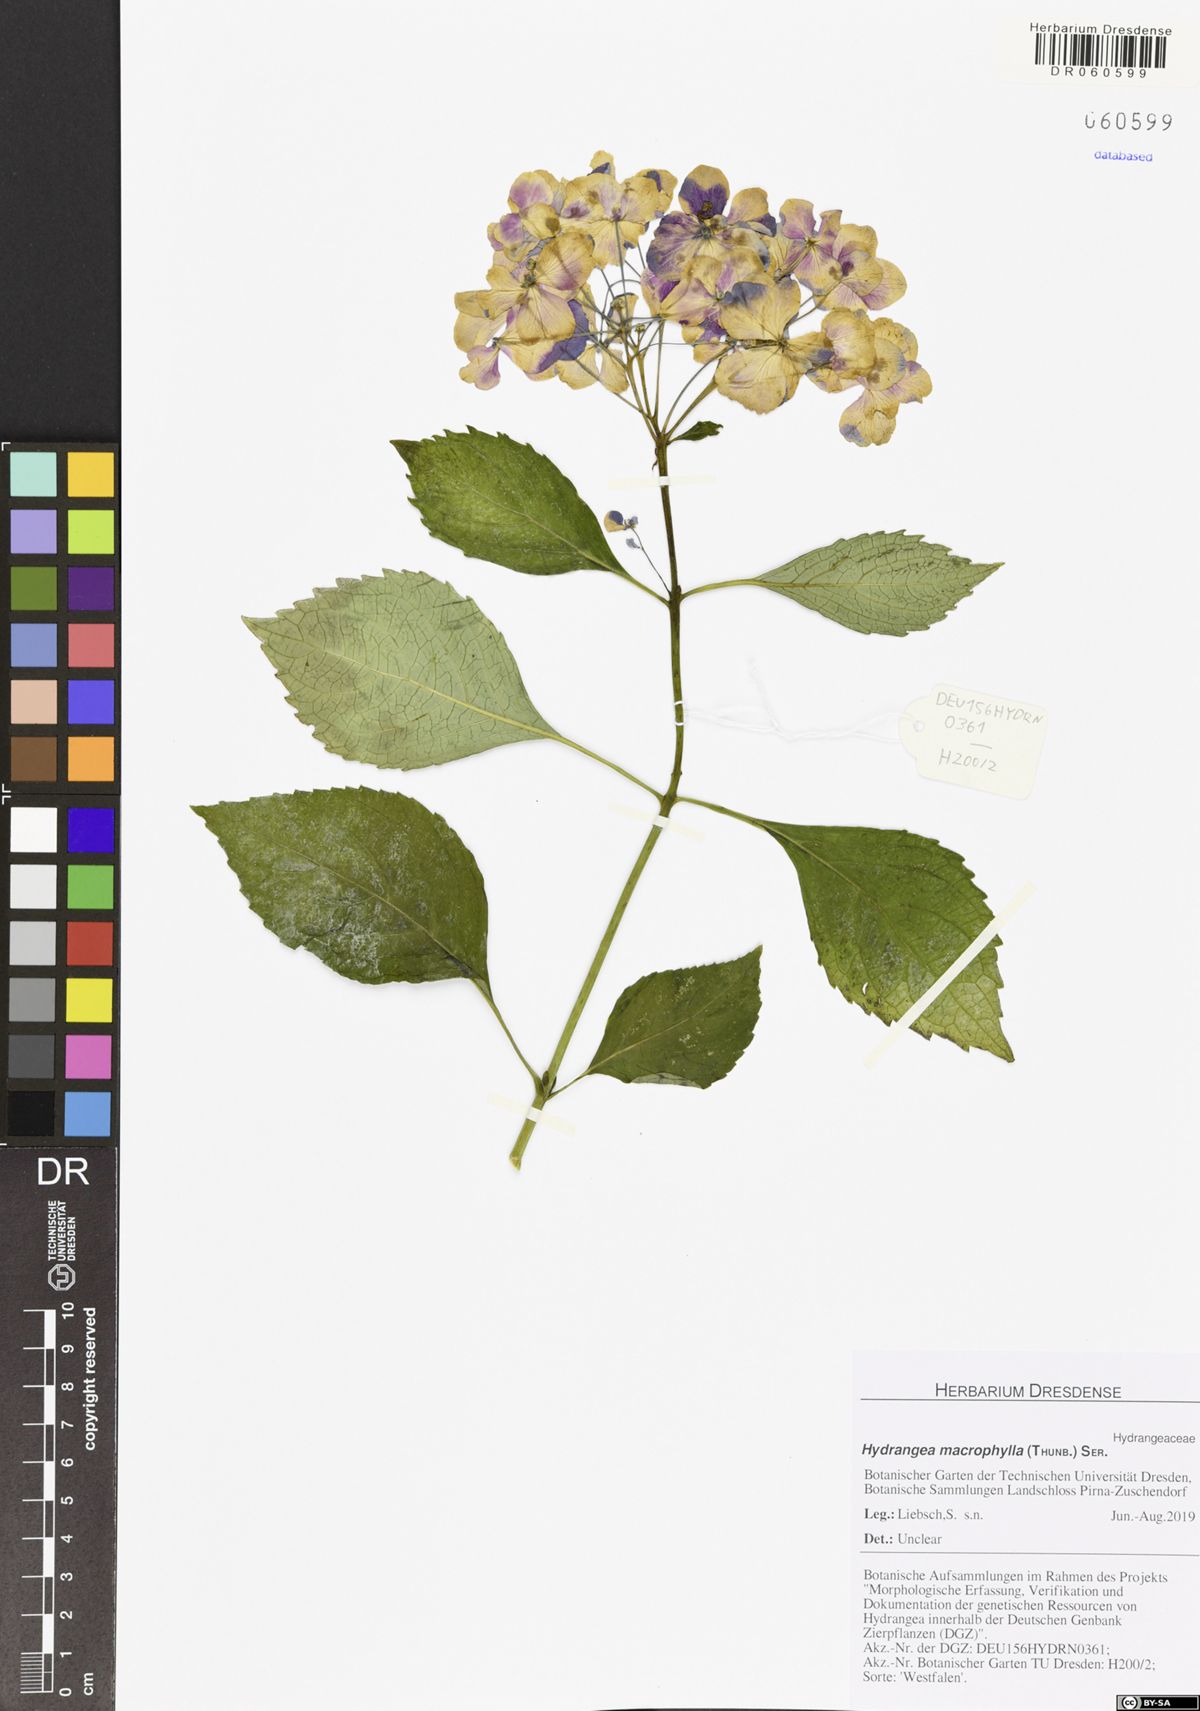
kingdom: Plantae
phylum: Tracheophyta
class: Magnoliopsida
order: Cornales
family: Hydrangeaceae
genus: Hydrangea
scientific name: Hydrangea macrophylla
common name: Hydrangea
